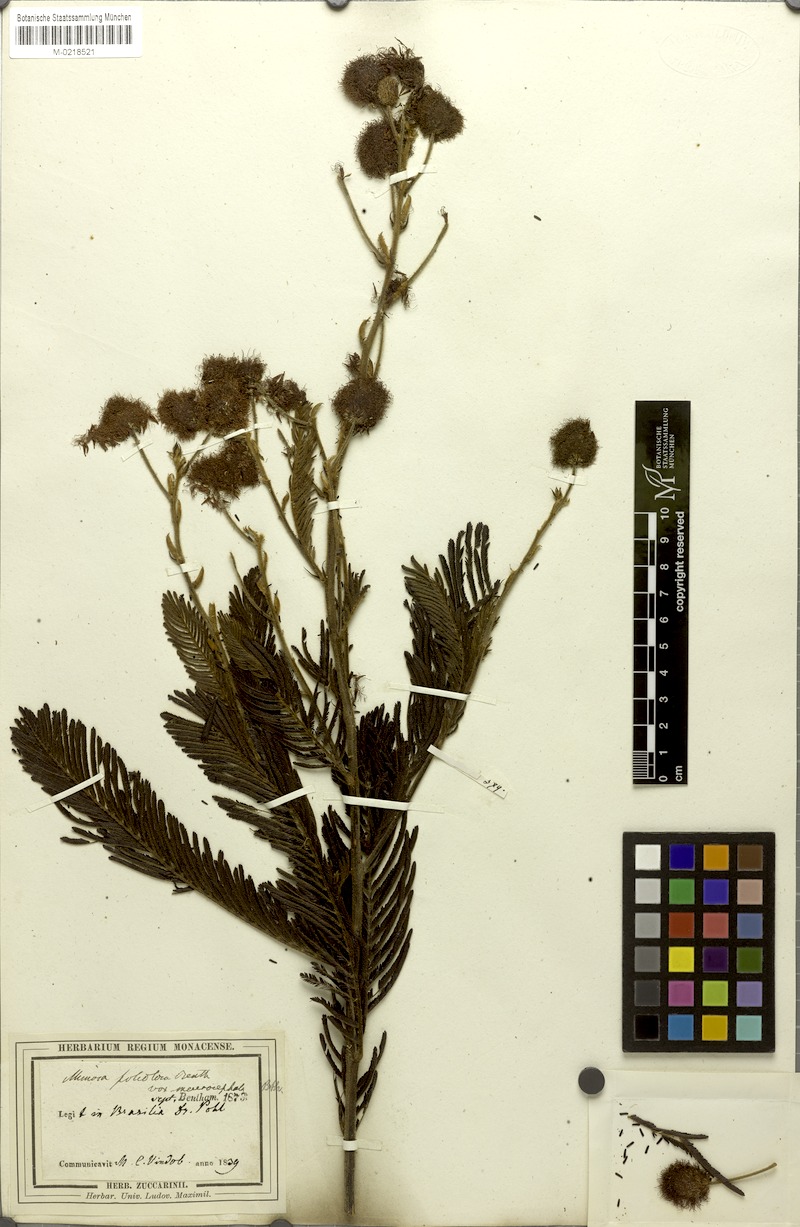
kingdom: Plantae
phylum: Tracheophyta
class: Magnoliopsida
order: Fabales
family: Fabaceae
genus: Mimosa
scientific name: Mimosa foliolosa
